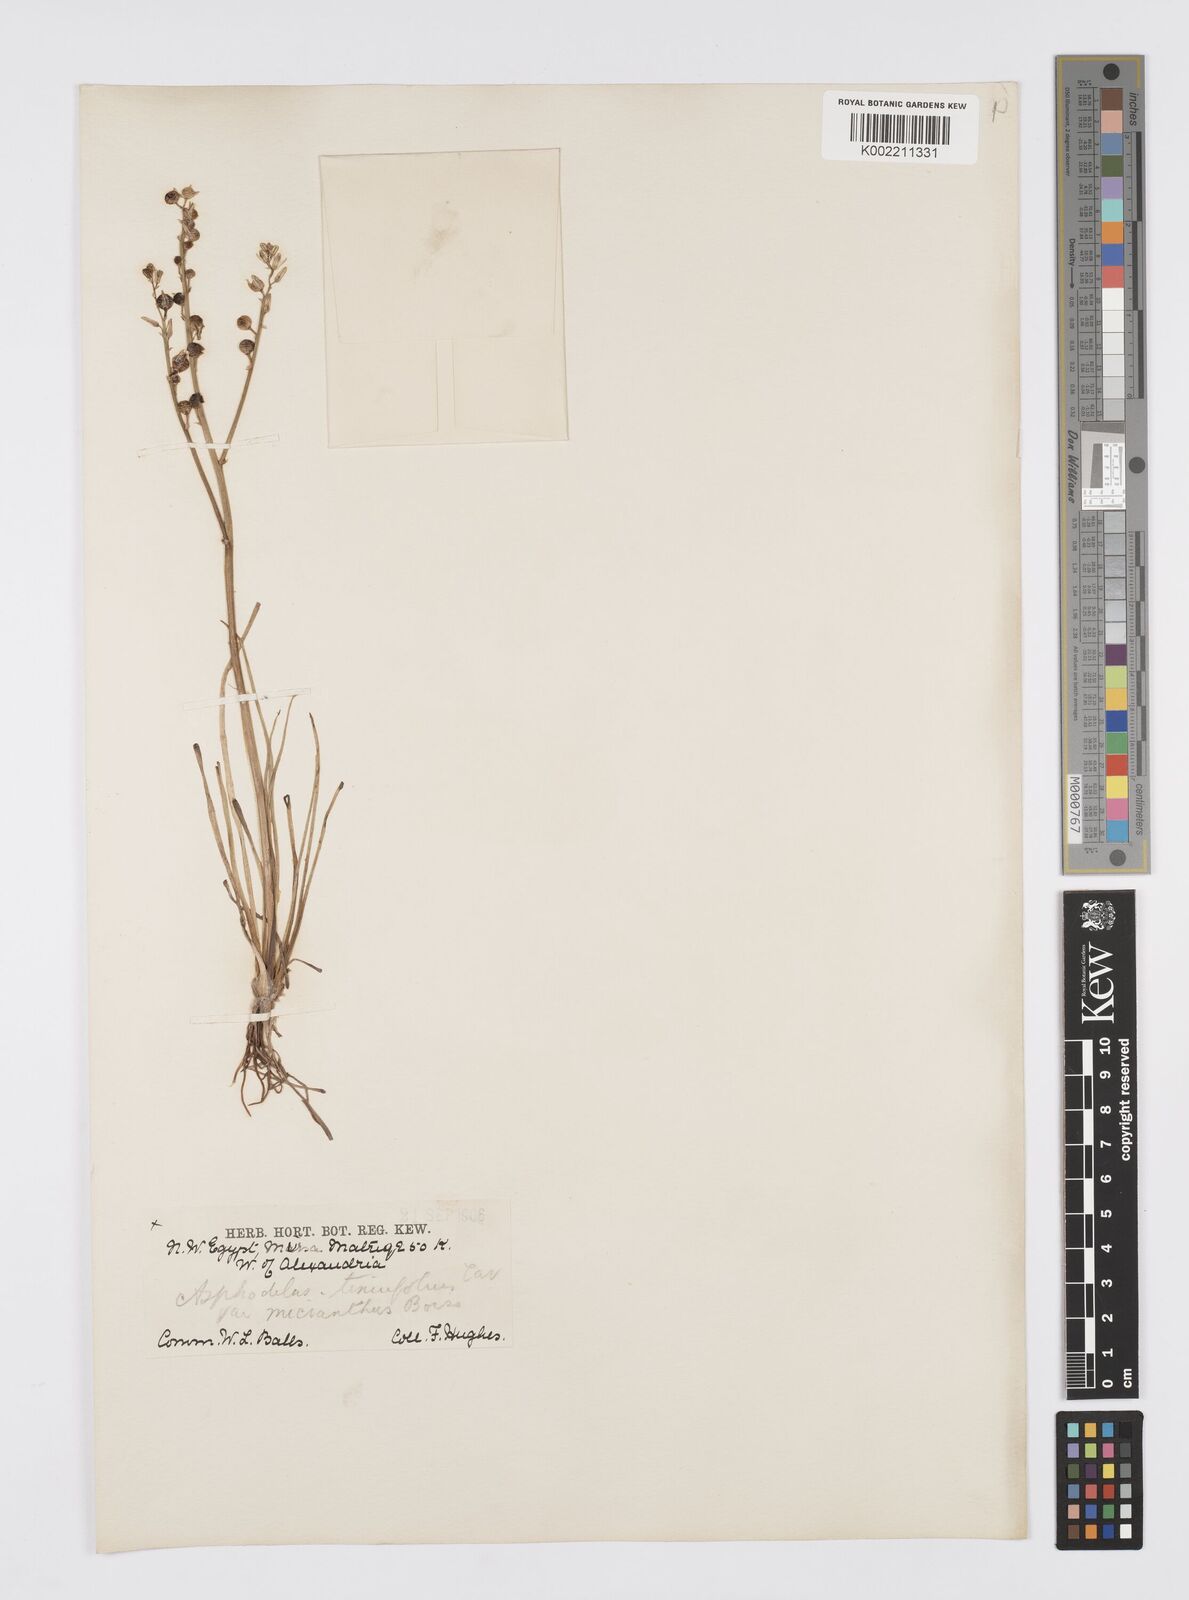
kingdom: Plantae
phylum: Tracheophyta
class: Liliopsida
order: Asparagales
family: Asphodelaceae
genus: Asphodelus
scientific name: Asphodelus tenuifolius
